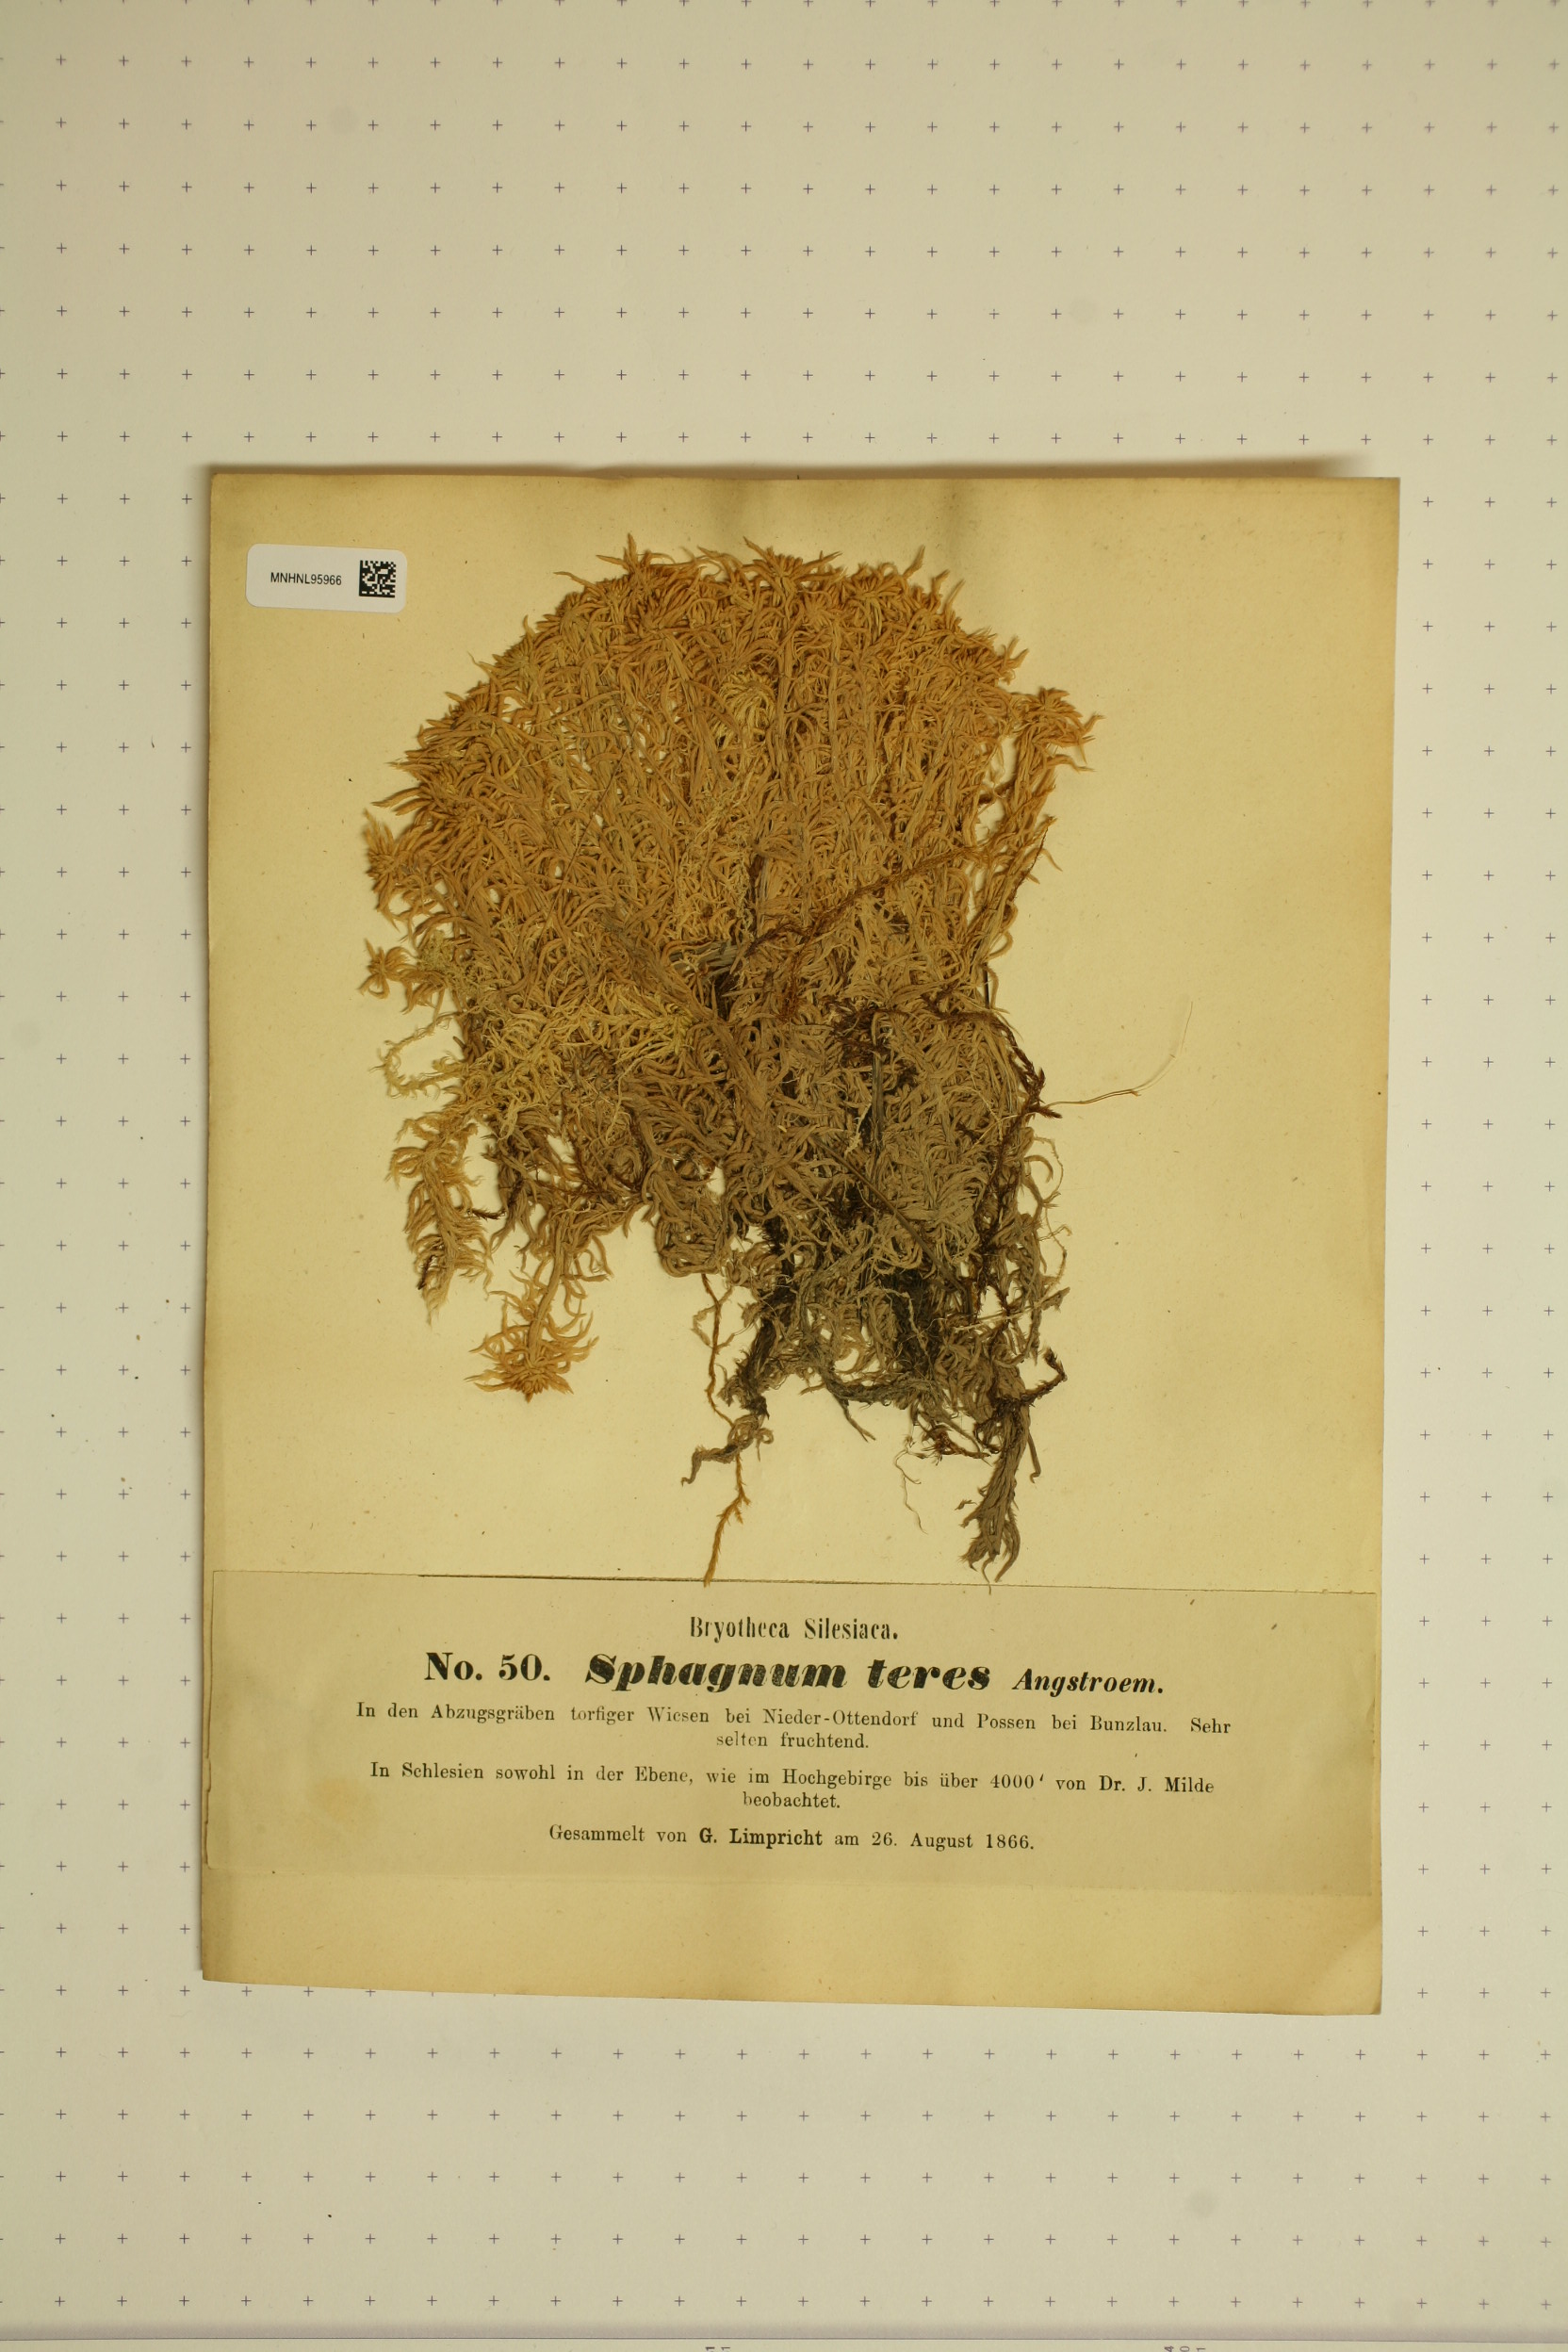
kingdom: Plantae
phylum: Bryophyta
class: Sphagnopsida
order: Sphagnales
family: Sphagnaceae
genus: Sphagnum
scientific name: Sphagnum teres
